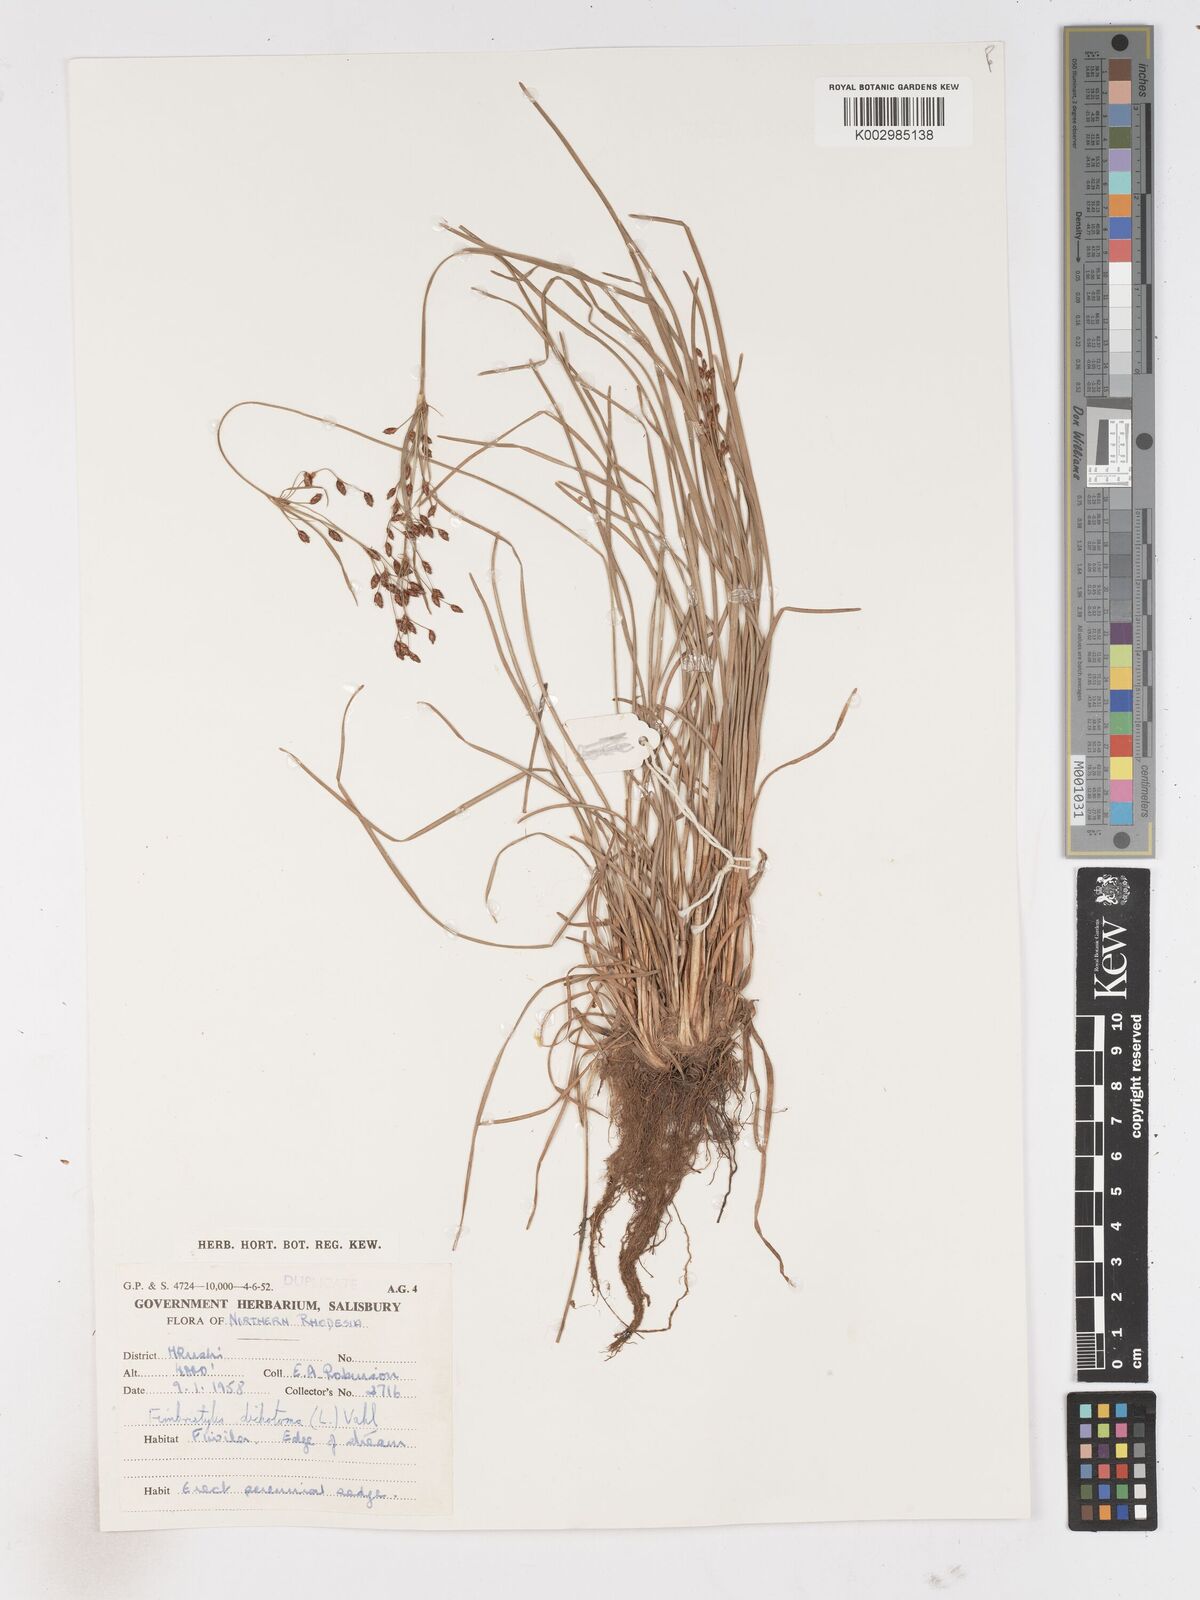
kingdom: Plantae
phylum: Tracheophyta
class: Liliopsida
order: Poales
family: Cyperaceae
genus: Fimbristylis
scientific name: Fimbristylis dichotoma
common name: Forked fimbry
